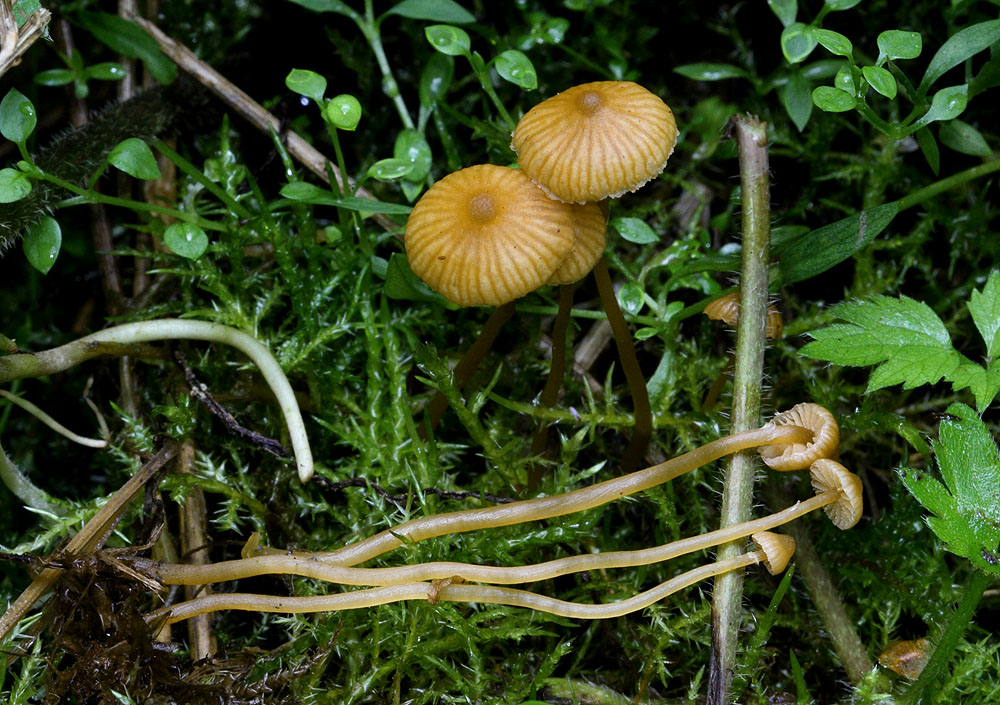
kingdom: Fungi
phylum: Basidiomycota
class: Agaricomycetes
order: Agaricales
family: Hymenogastraceae
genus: Galerina
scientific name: Galerina jaapii
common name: hvidbæltet hjelmhat
